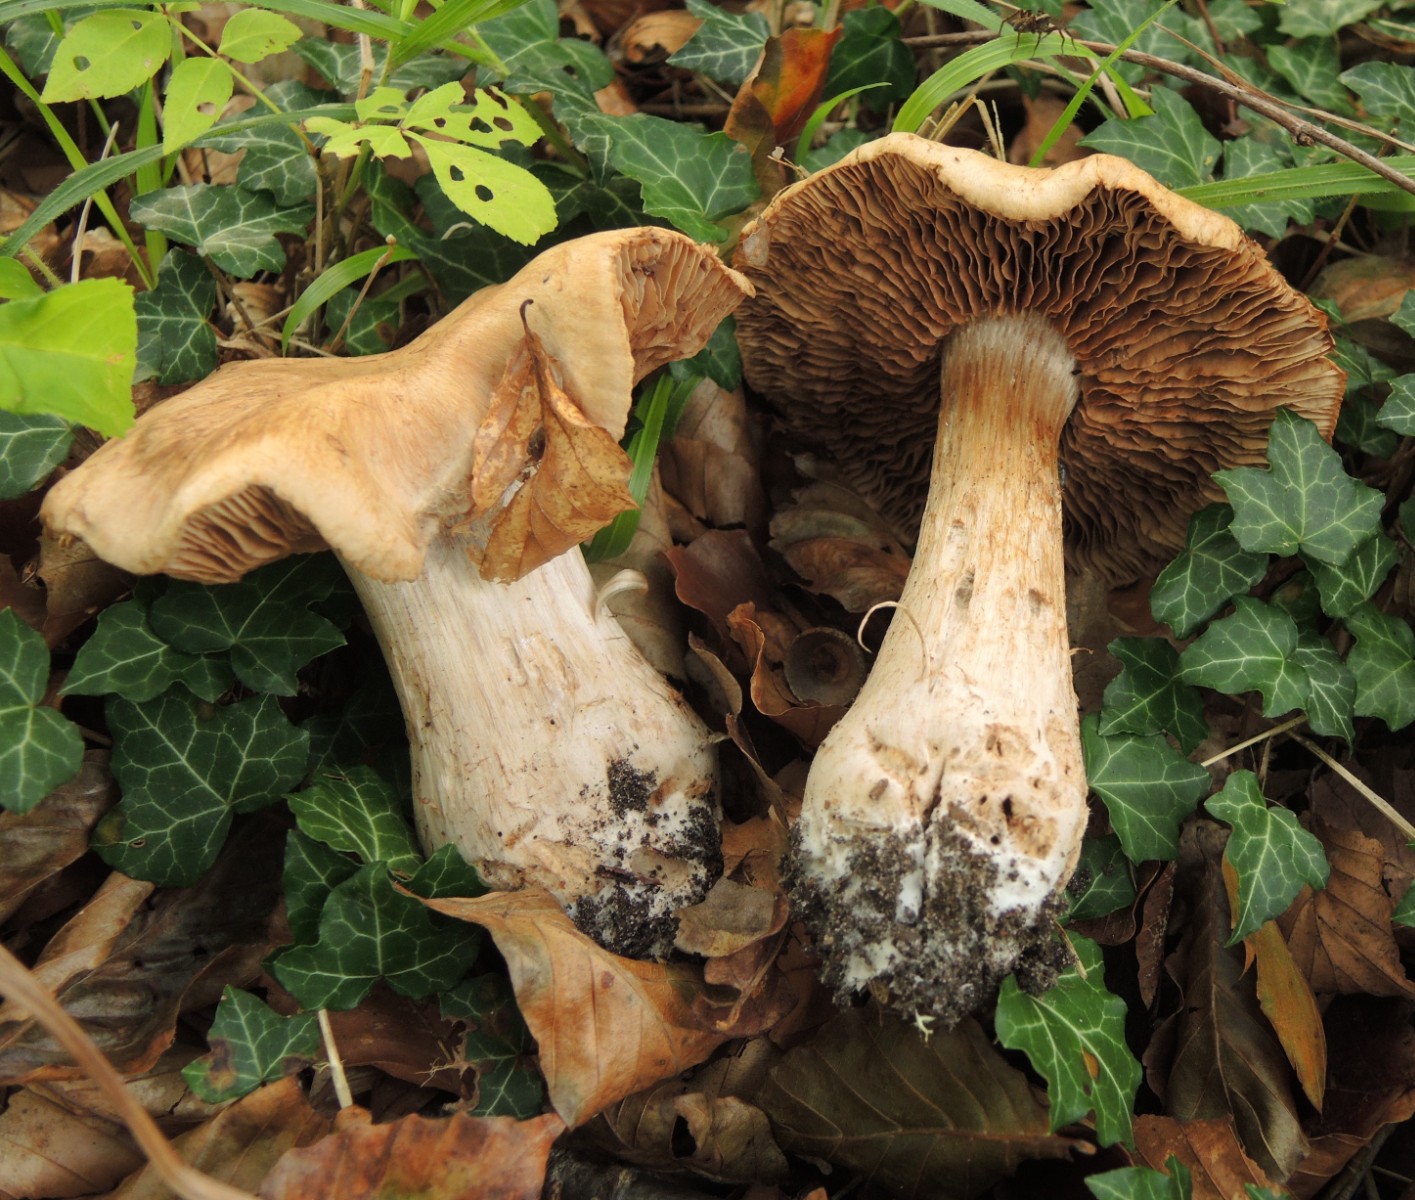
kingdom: Fungi
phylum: Basidiomycota
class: Agaricomycetes
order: Agaricales
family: Cortinariaceae
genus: Cortinarius
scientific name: Cortinarius
